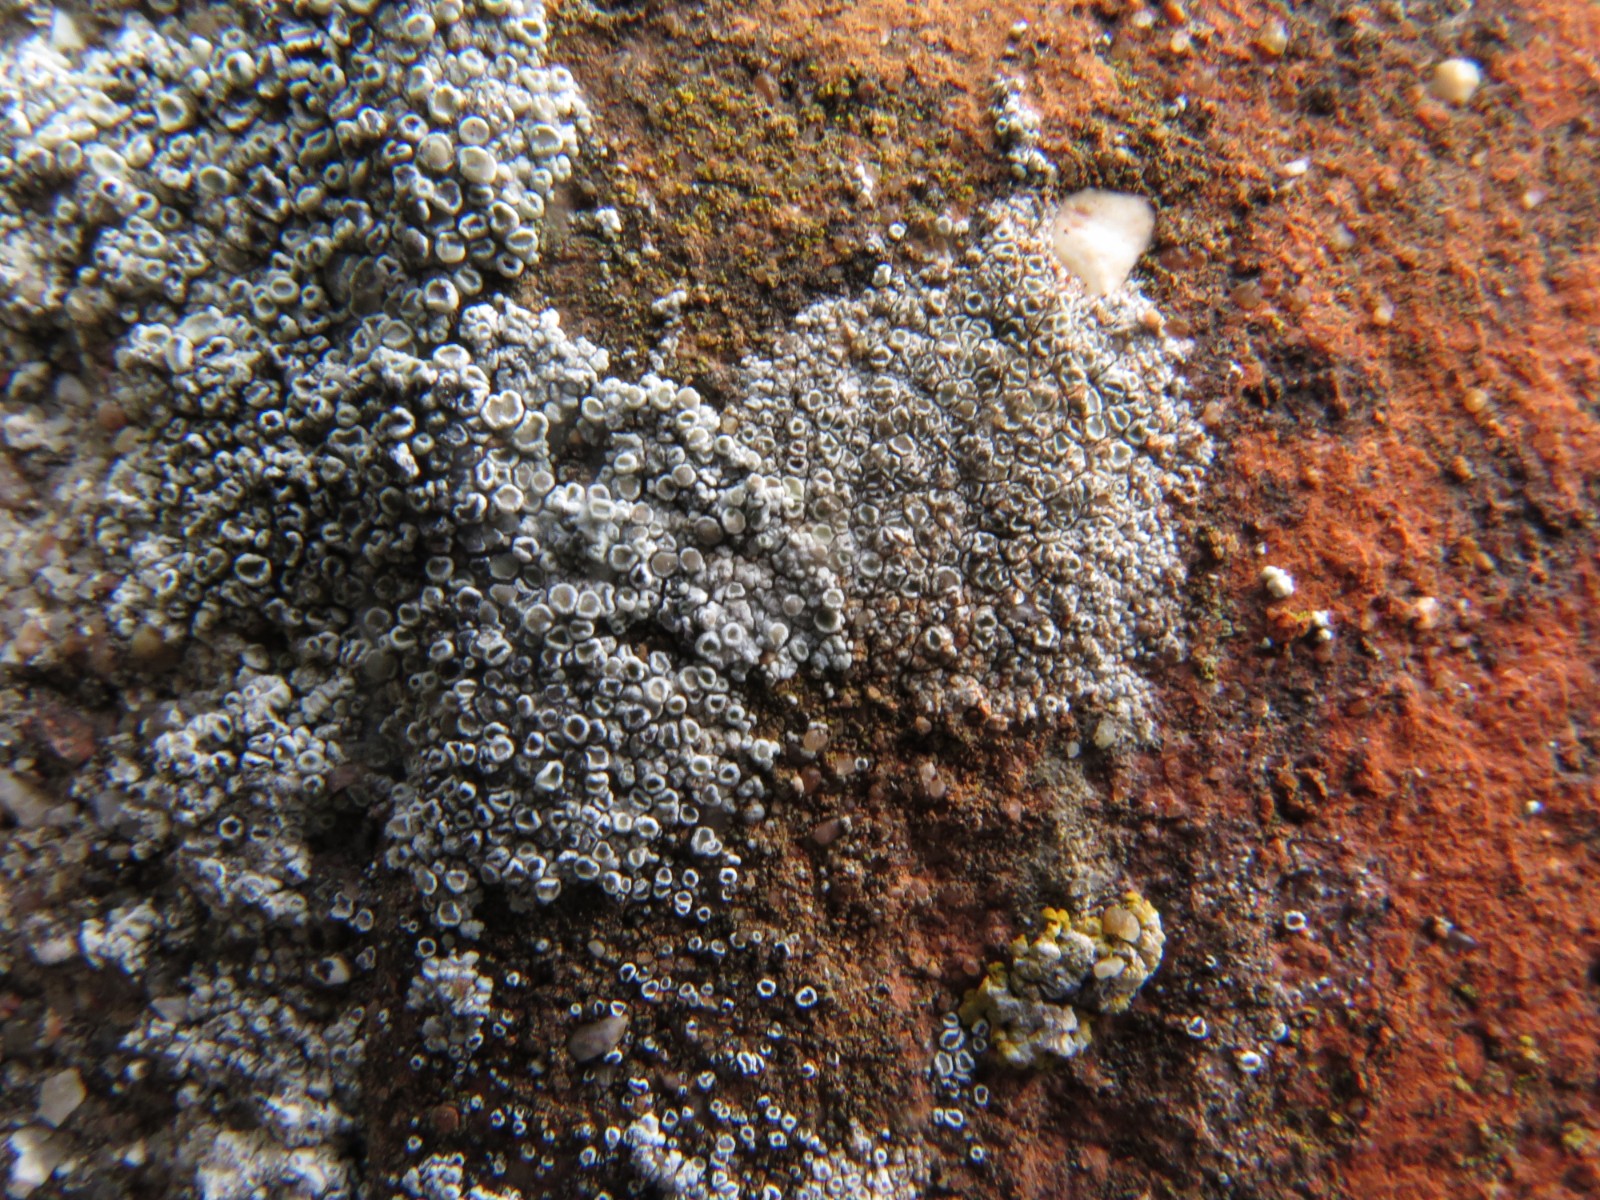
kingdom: Fungi
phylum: Ascomycota
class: Lecanoromycetes
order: Lecanorales
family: Lecanoraceae
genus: Polyozosia
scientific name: Polyozosia albescens
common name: cement-kantskivelav
